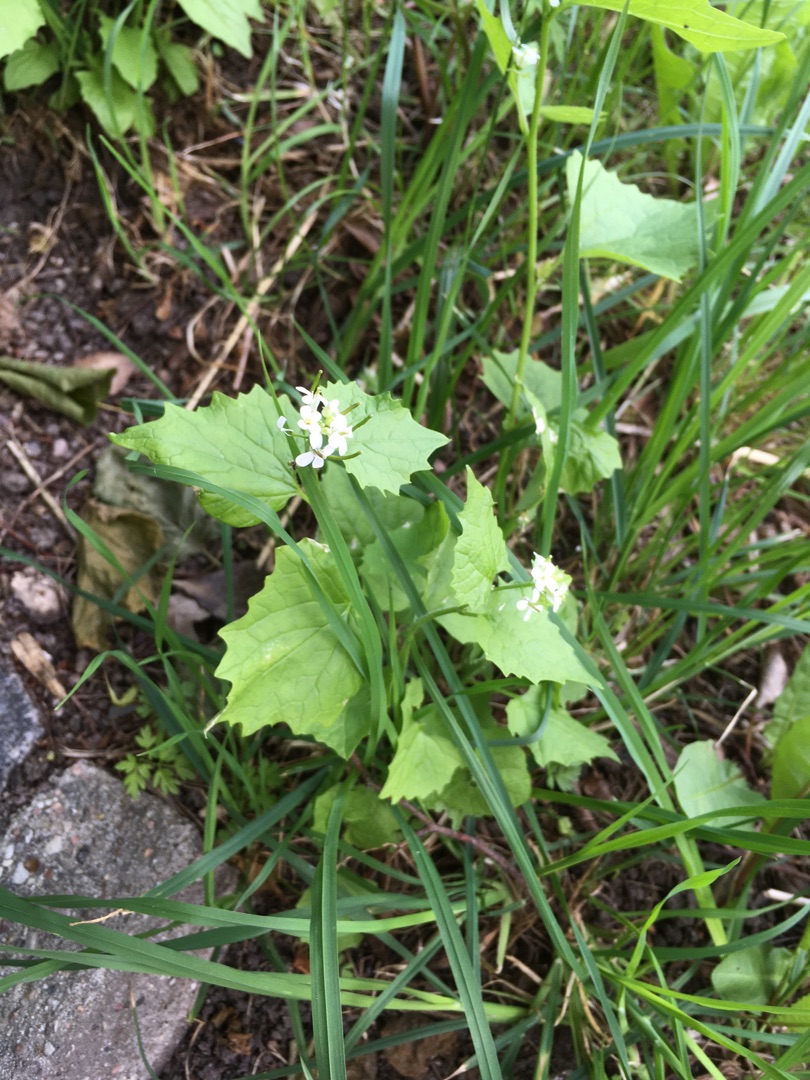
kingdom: Plantae
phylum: Tracheophyta
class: Magnoliopsida
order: Brassicales
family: Brassicaceae
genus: Alliaria
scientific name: Alliaria petiolata
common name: Løgkarse
